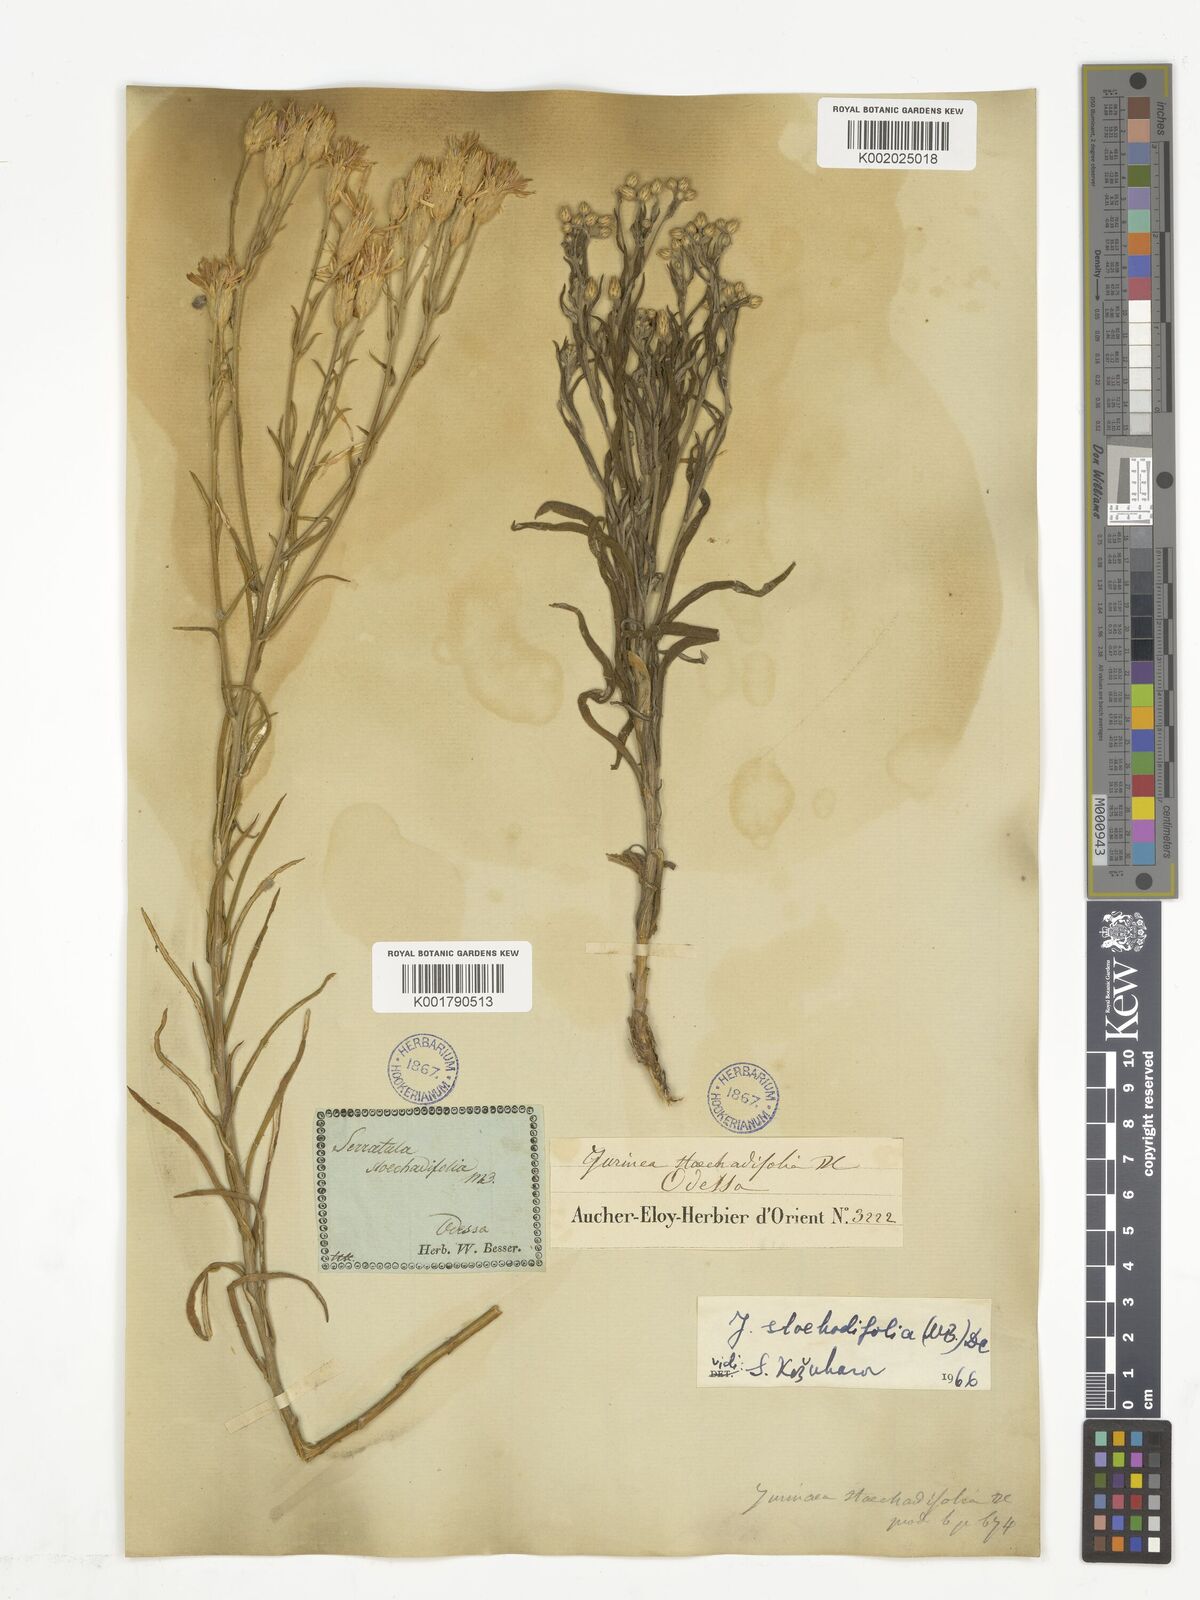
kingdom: Plantae
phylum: Tracheophyta
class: Magnoliopsida
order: Asterales
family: Asteraceae
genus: Jurinea
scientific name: Jurinea stoechadifolia
